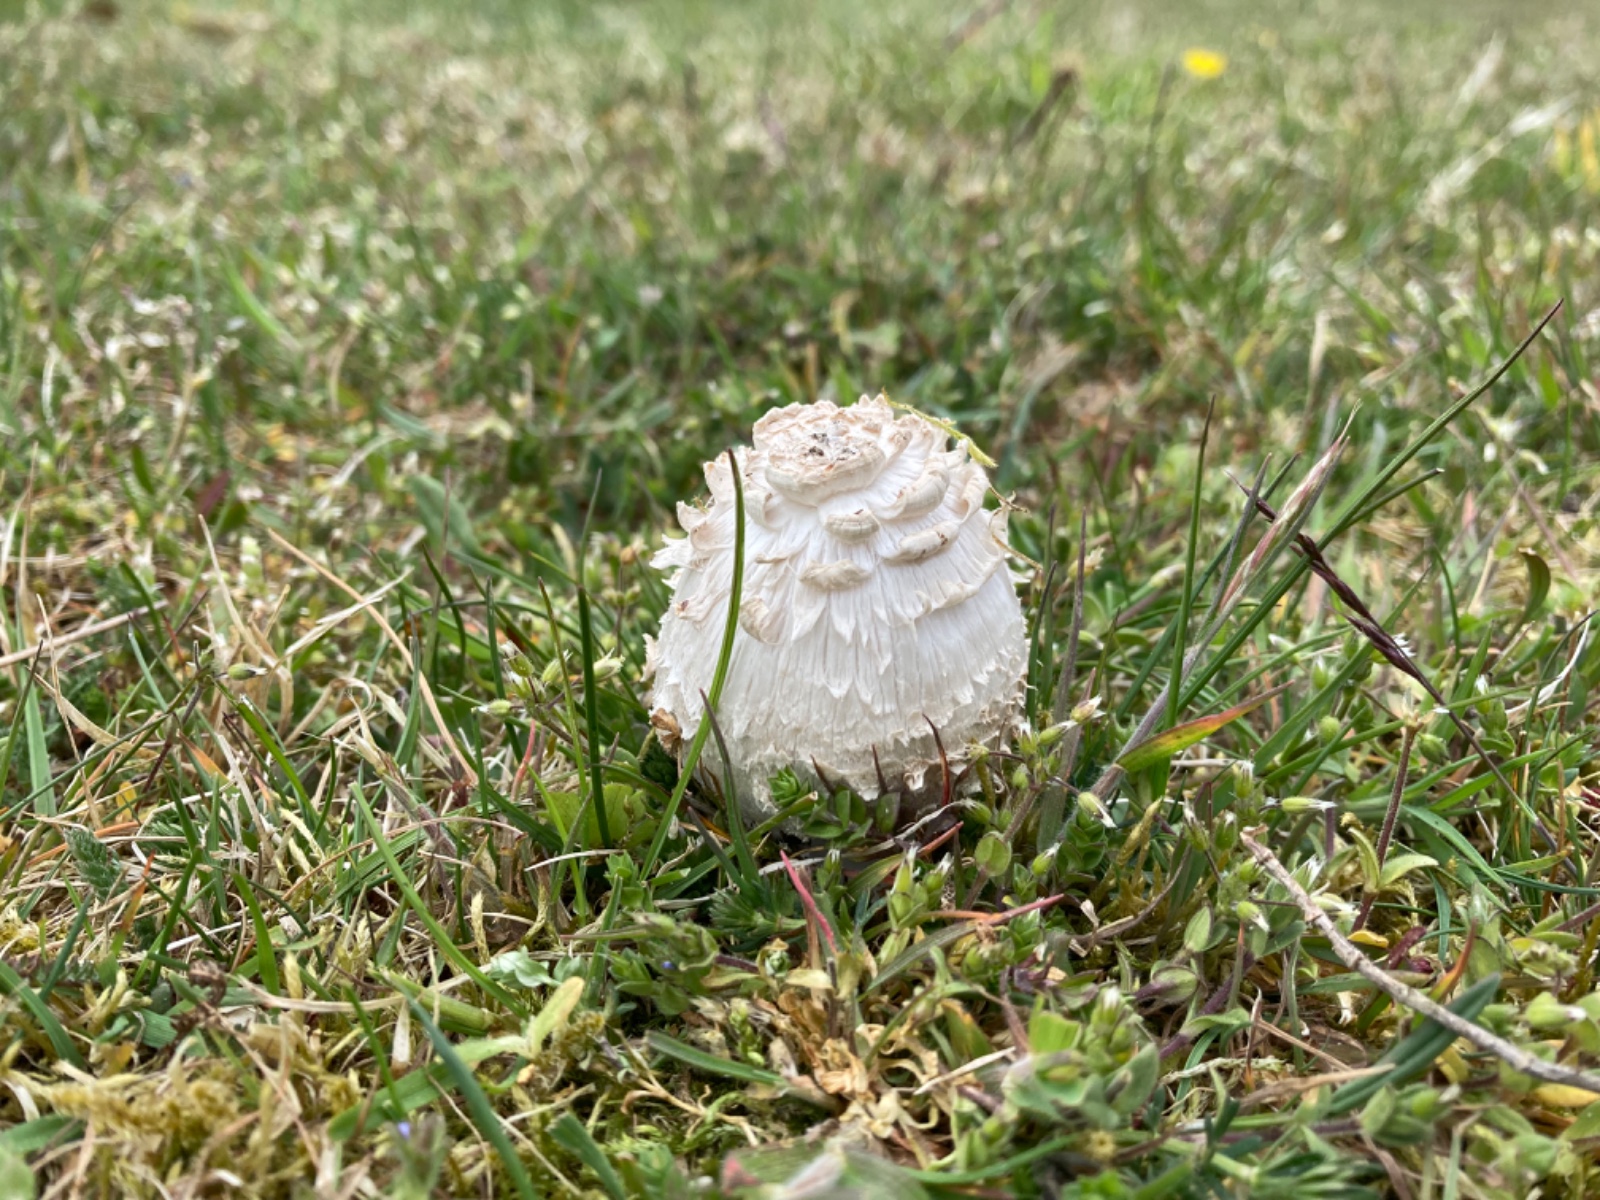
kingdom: Fungi
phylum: Basidiomycota
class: Agaricomycetes
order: Agaricales
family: Agaricaceae
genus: Coprinus
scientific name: Coprinus comatus
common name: stor parykhat
